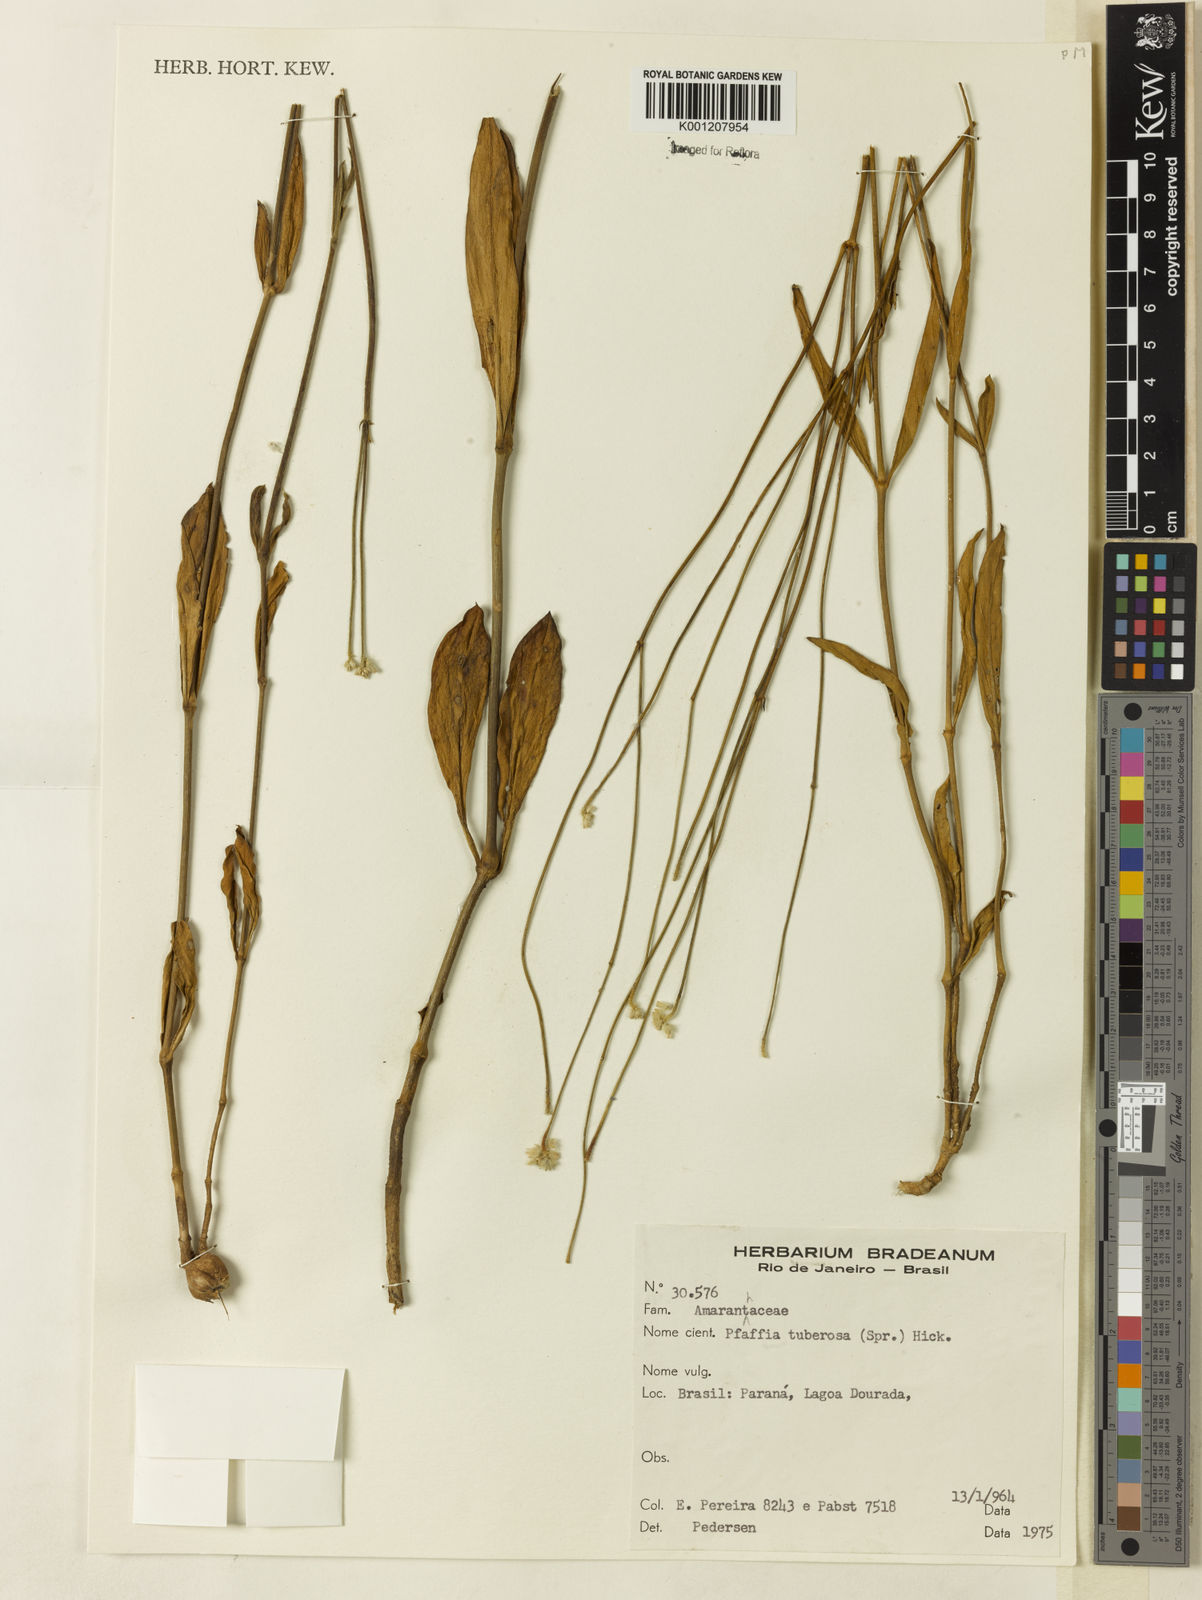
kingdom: Plantae
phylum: Tracheophyta
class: Magnoliopsida
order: Caryophyllales
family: Amaranthaceae
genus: Pfaffia
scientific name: Pfaffia
